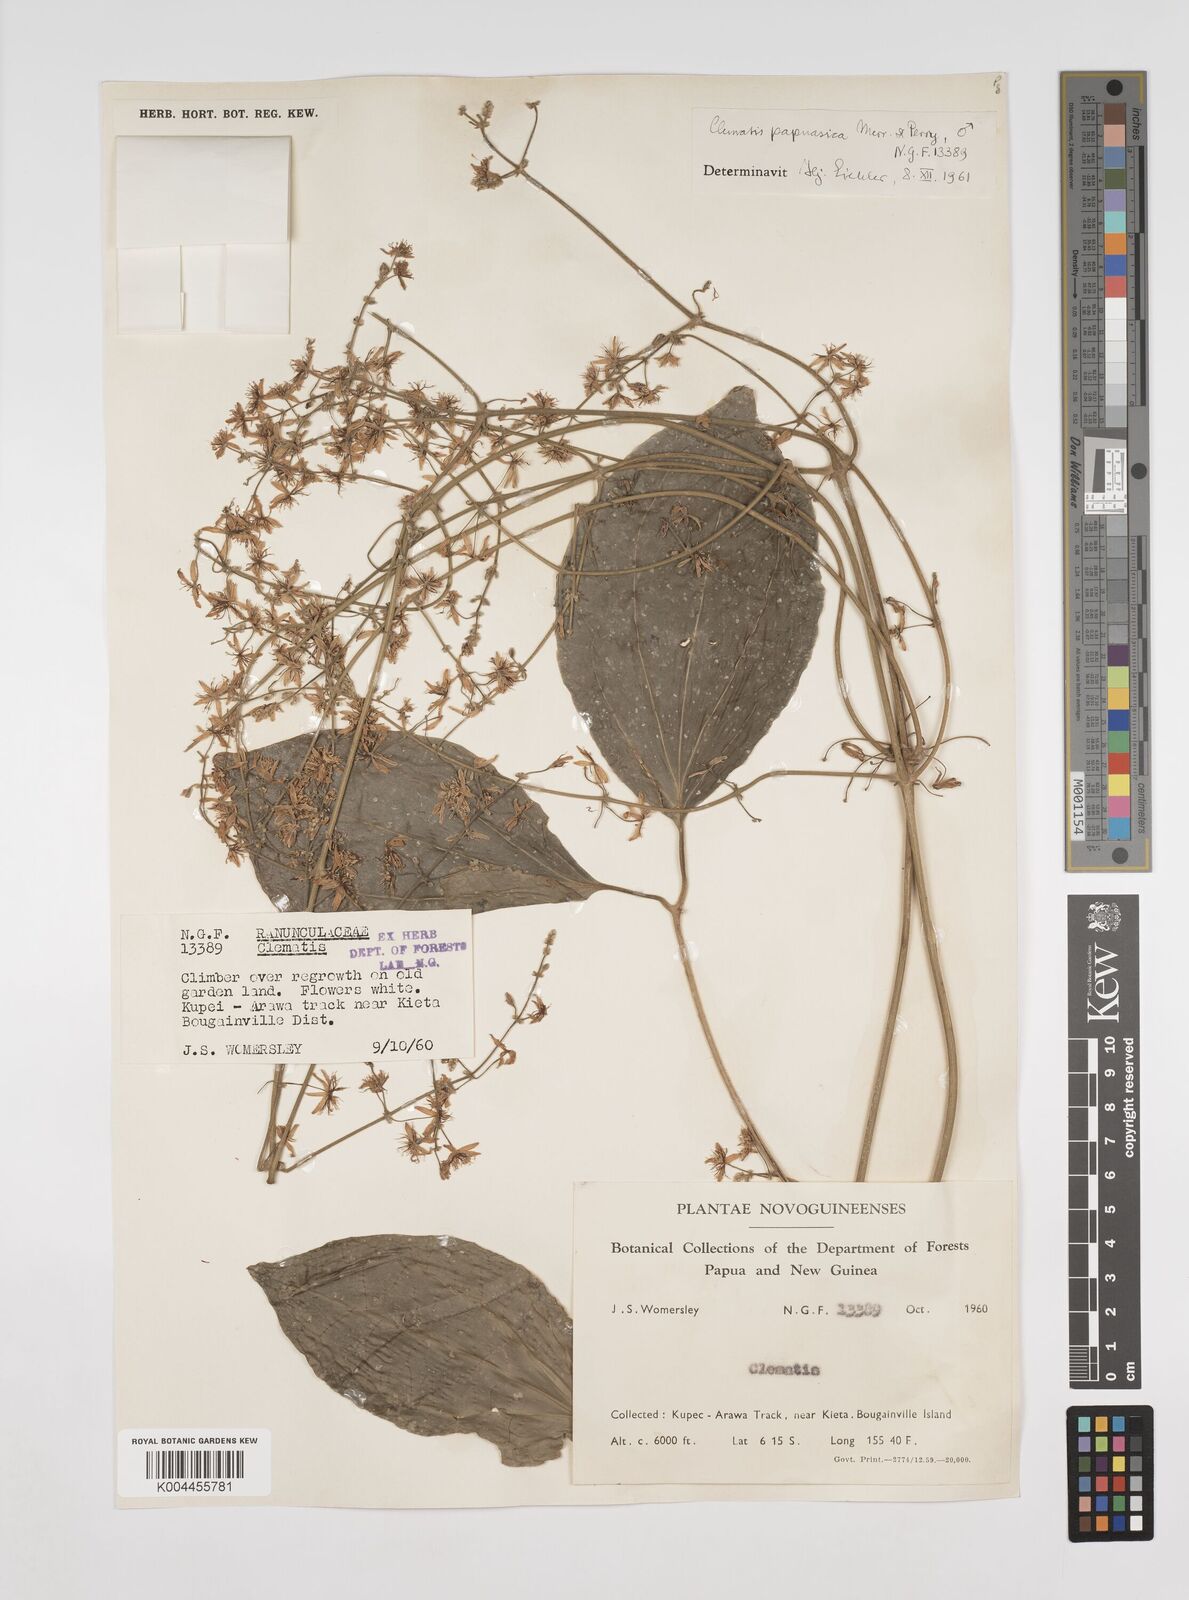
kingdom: Plantae
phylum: Tracheophyta
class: Magnoliopsida
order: Ranunculales
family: Ranunculaceae
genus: Clematis
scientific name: Clematis papuasica
